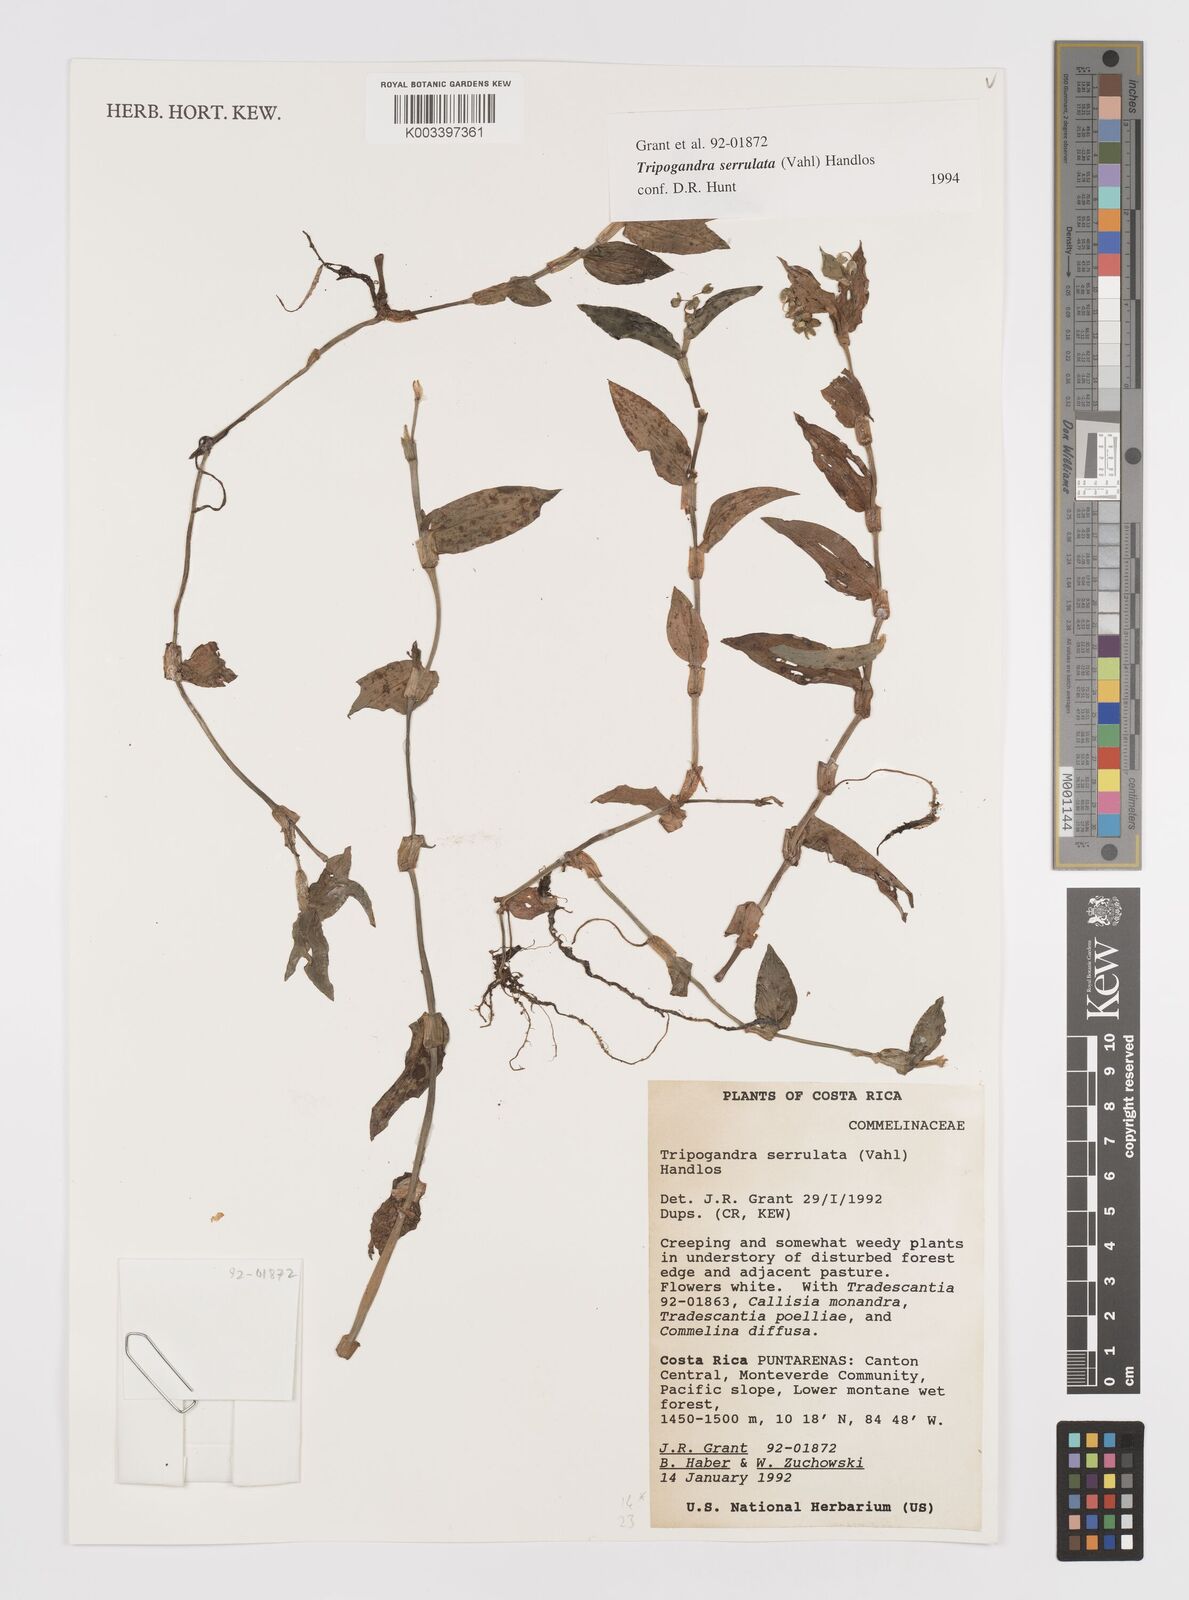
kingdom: Plantae
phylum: Tracheophyta
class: Liliopsida
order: Commelinales
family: Commelinaceae
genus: Callisia
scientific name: Callisia serrulata
